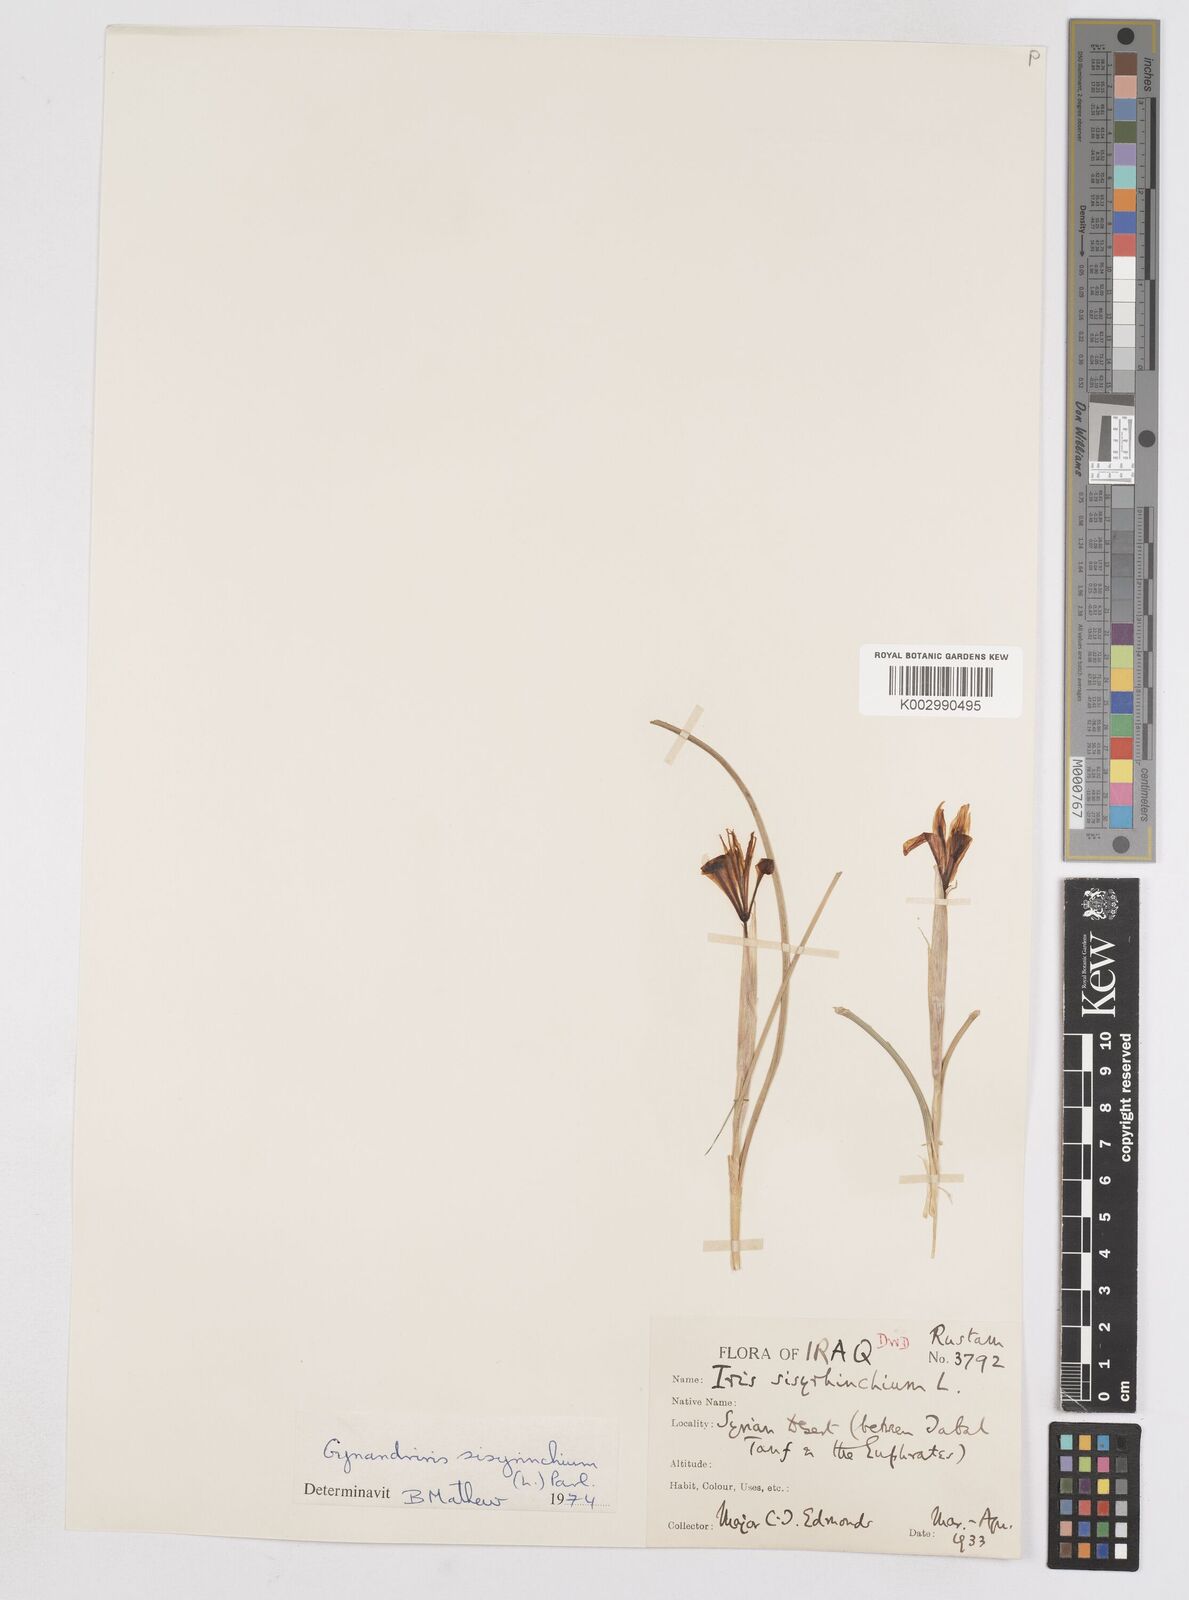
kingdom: Plantae
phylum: Tracheophyta
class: Liliopsida
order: Asparagales
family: Iridaceae
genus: Moraea
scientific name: Moraea sisyrinchium
